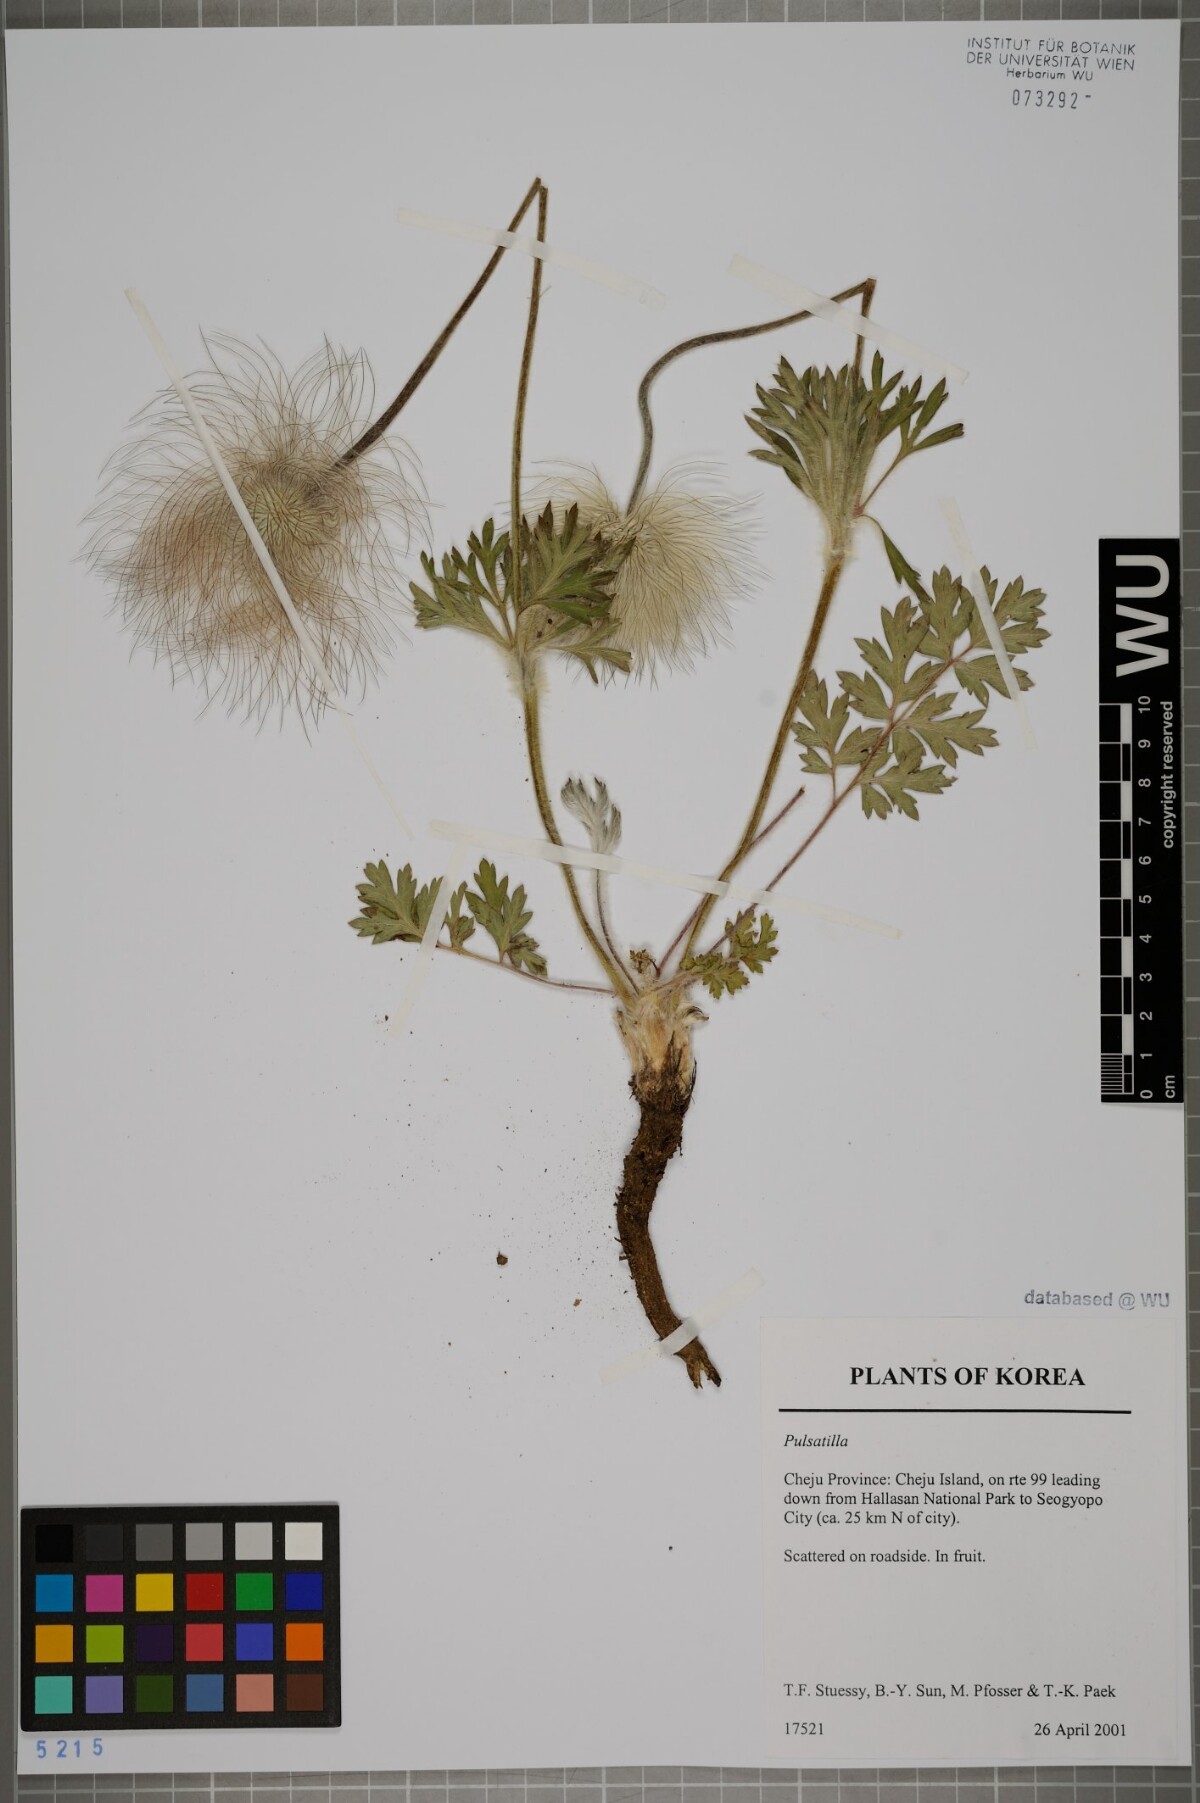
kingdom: Plantae
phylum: Tracheophyta
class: Magnoliopsida
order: Ranunculales
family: Ranunculaceae
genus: Pulsatilla
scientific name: Pulsatilla
